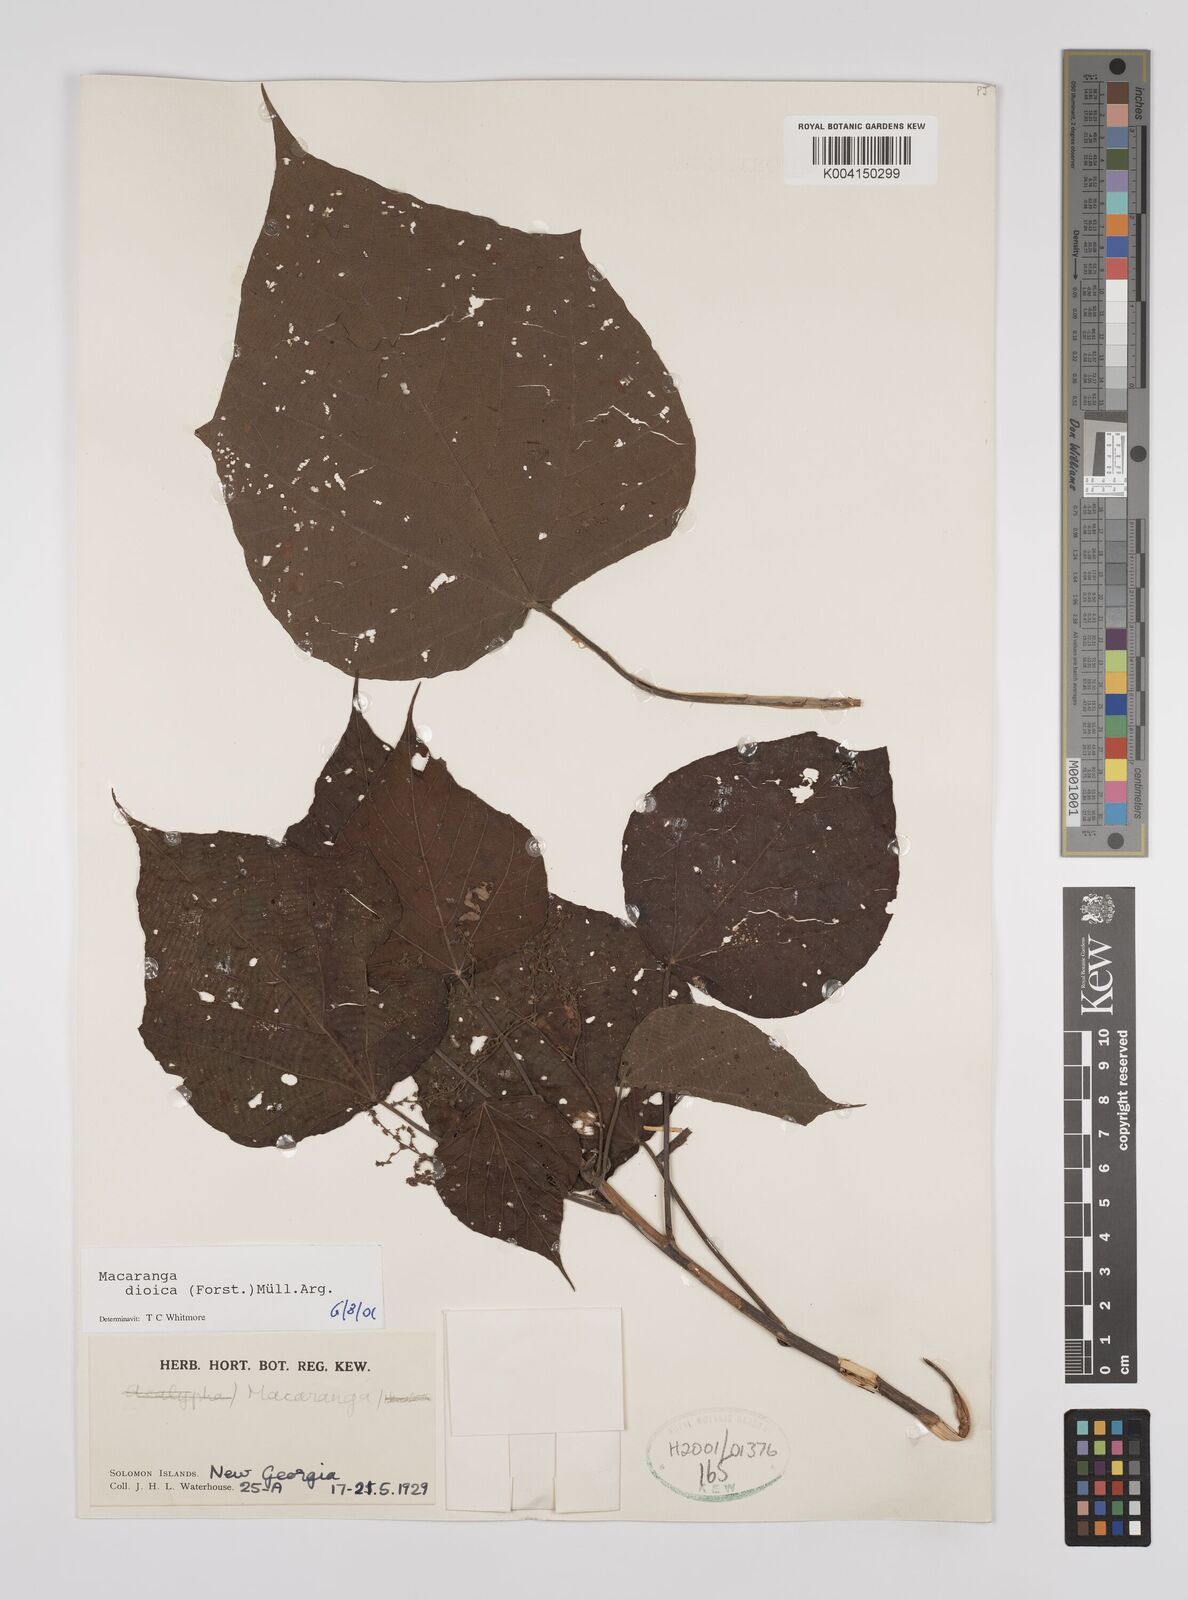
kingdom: Plantae
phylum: Tracheophyta
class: Magnoliopsida
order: Malpighiales
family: Euphorbiaceae
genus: Macaranga
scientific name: Macaranga dioica
